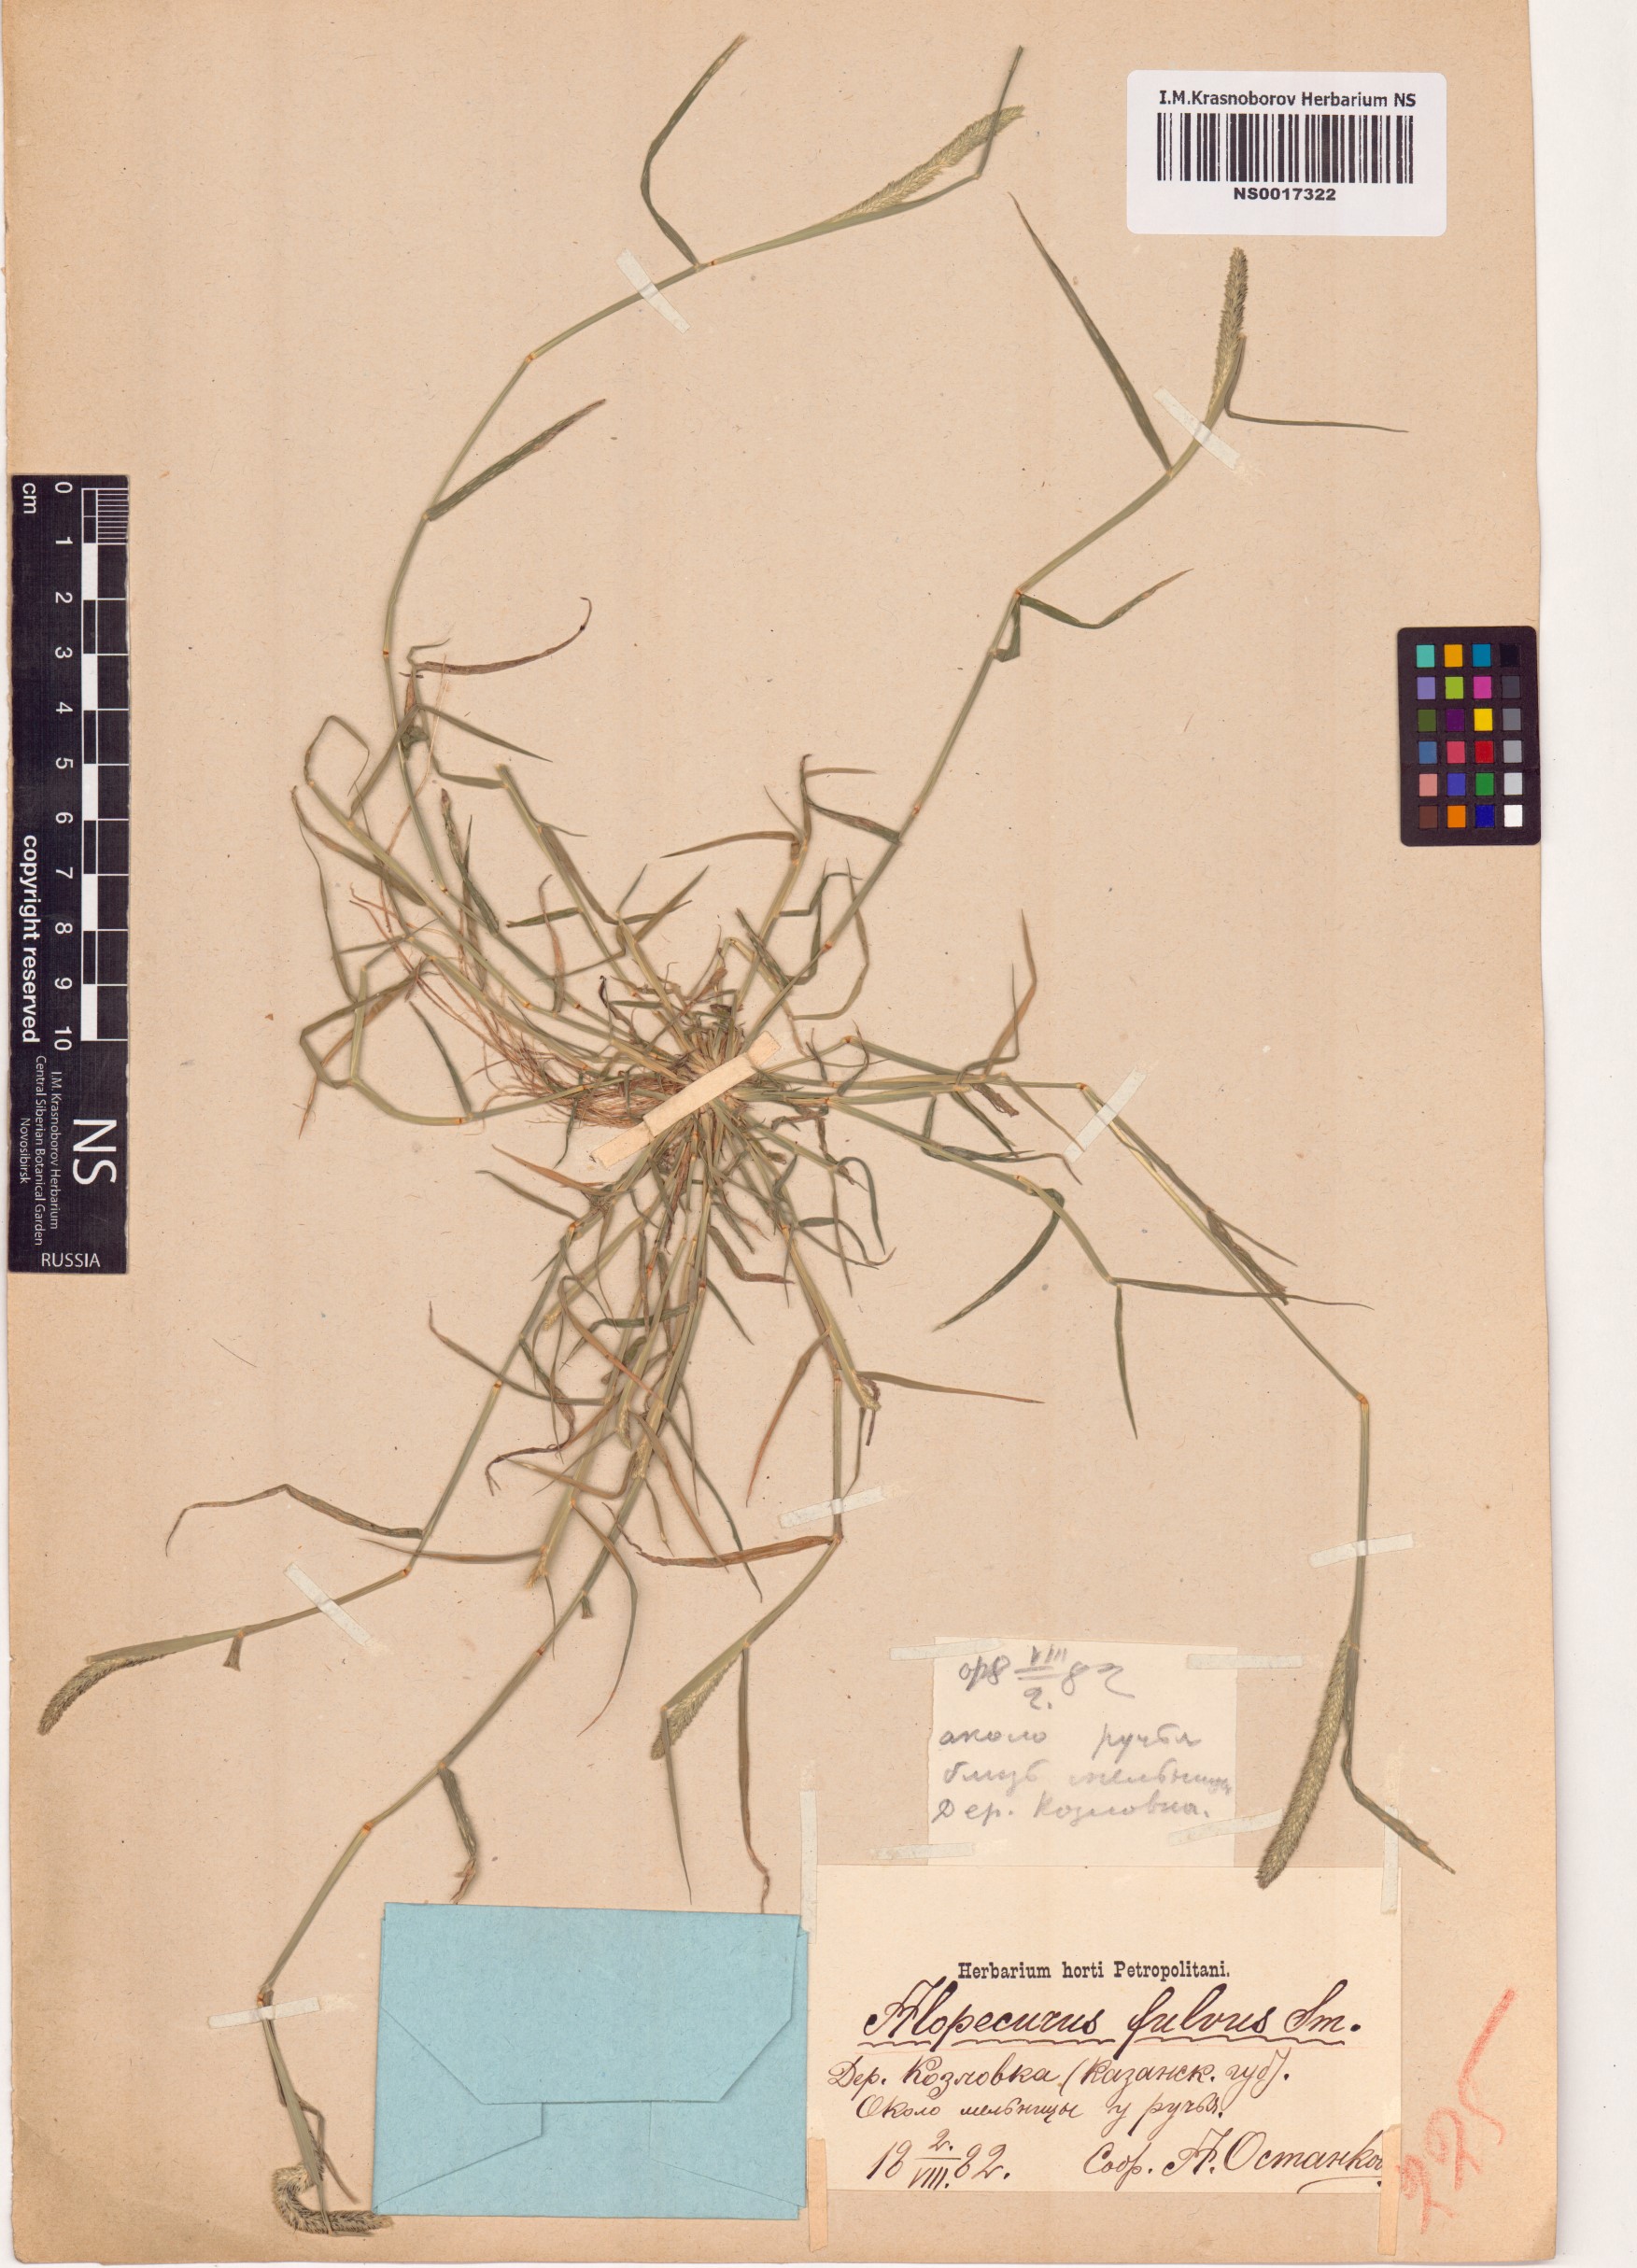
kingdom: Plantae
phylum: Tracheophyta
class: Liliopsida
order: Poales
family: Poaceae
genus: Alopecurus
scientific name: Alopecurus aequalis
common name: Orange foxtail
